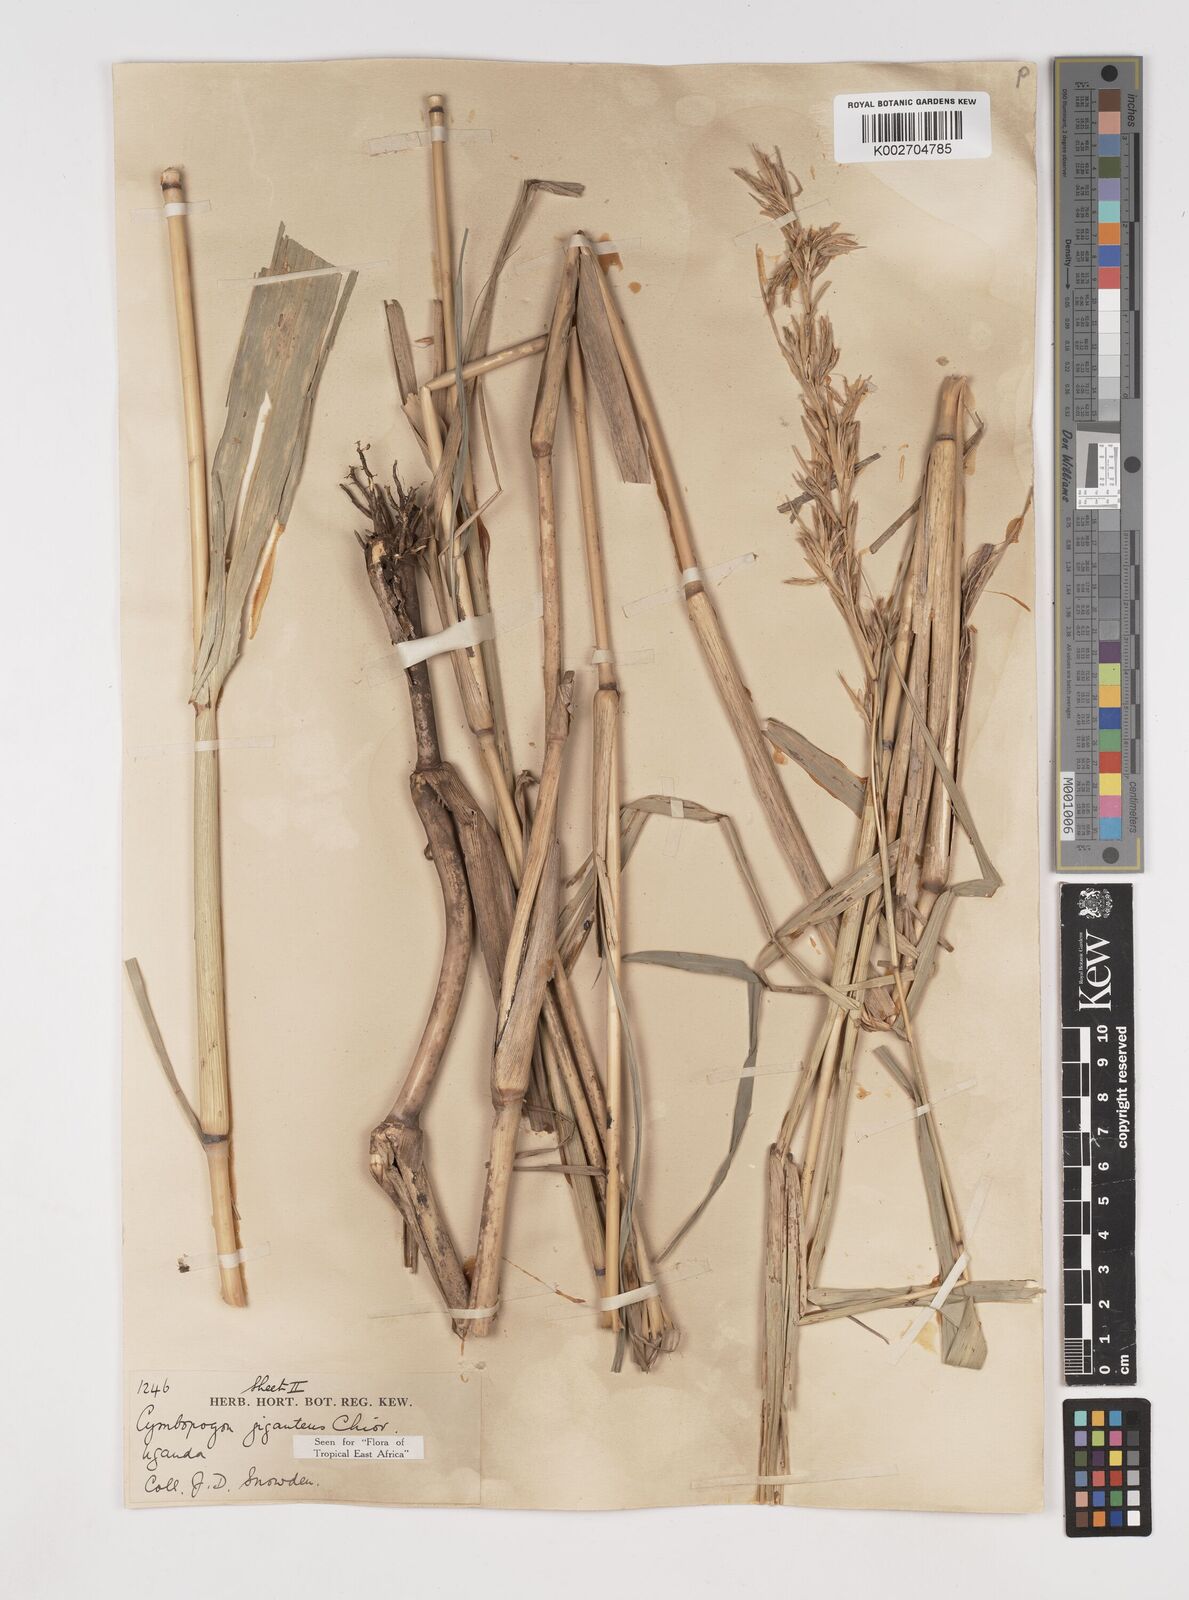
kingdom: Plantae
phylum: Tracheophyta
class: Liliopsida
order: Poales
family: Poaceae
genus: Cymbopogon
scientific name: Cymbopogon giganteus
